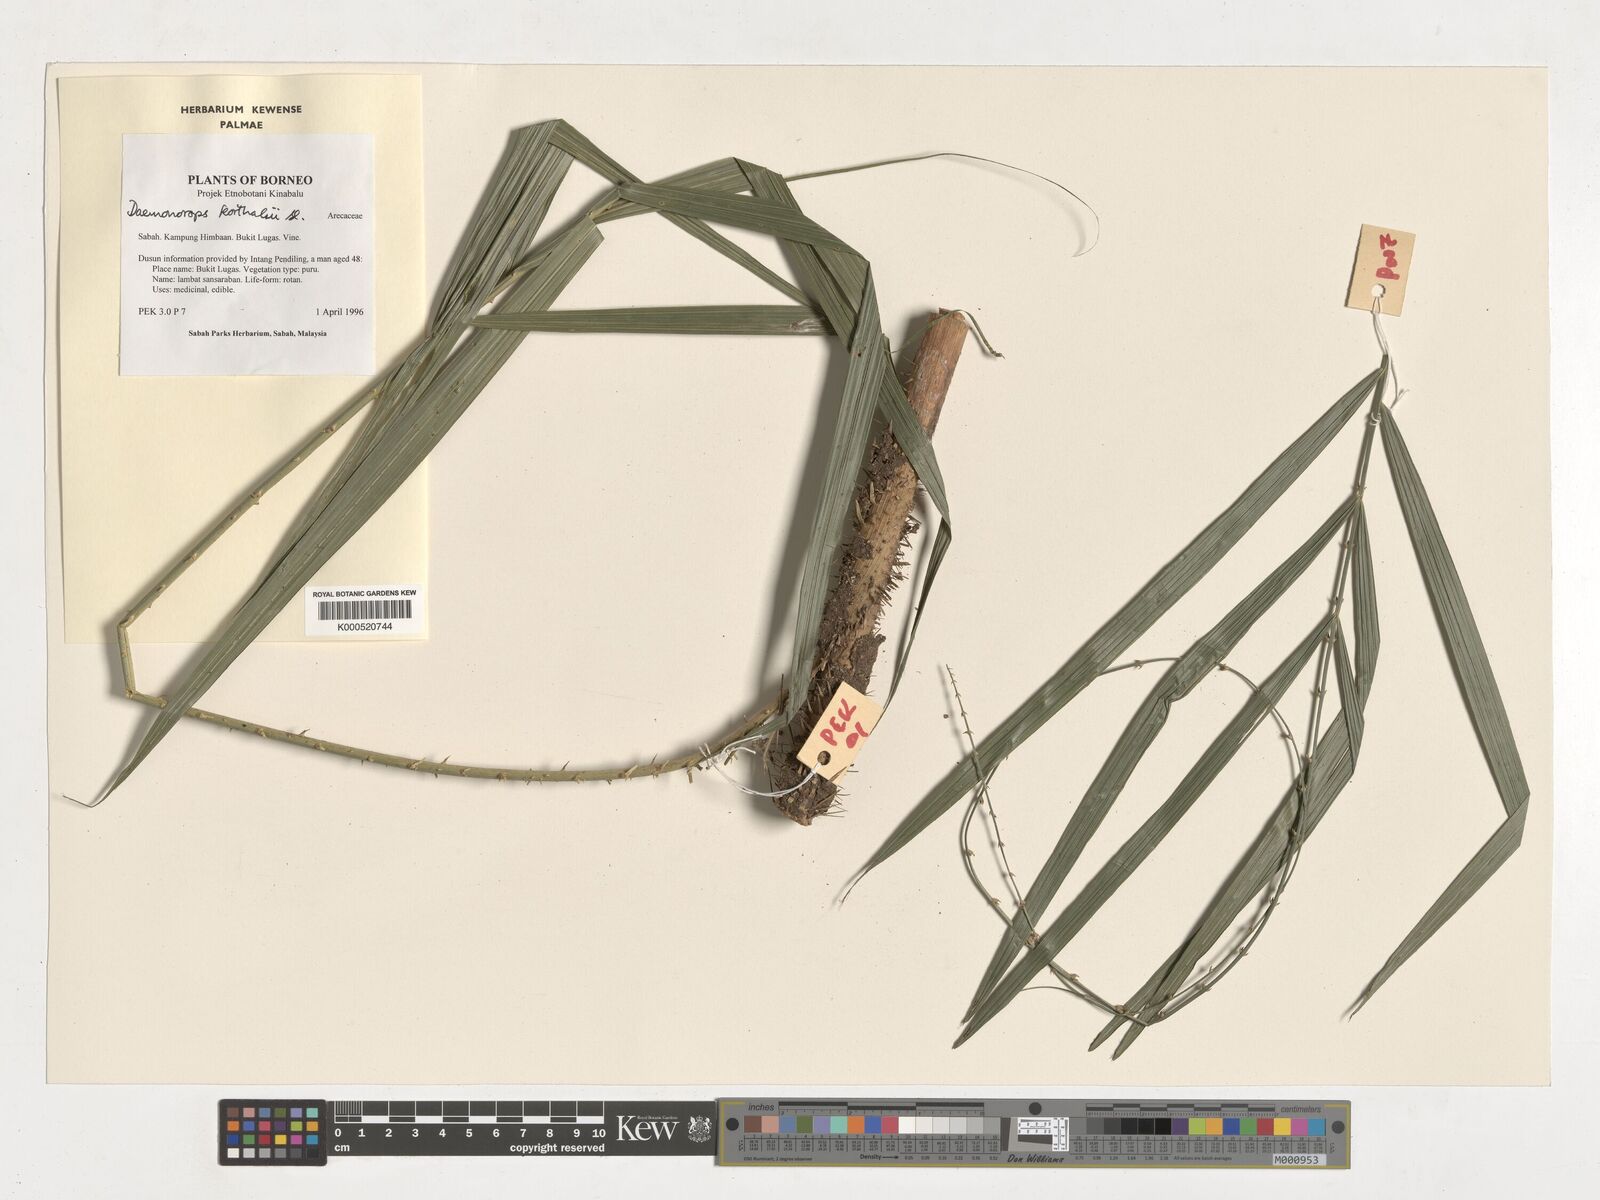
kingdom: Plantae
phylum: Tracheophyta
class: Liliopsida
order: Arecales
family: Arecaceae
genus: Calamus
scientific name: Calamus hirsutus
